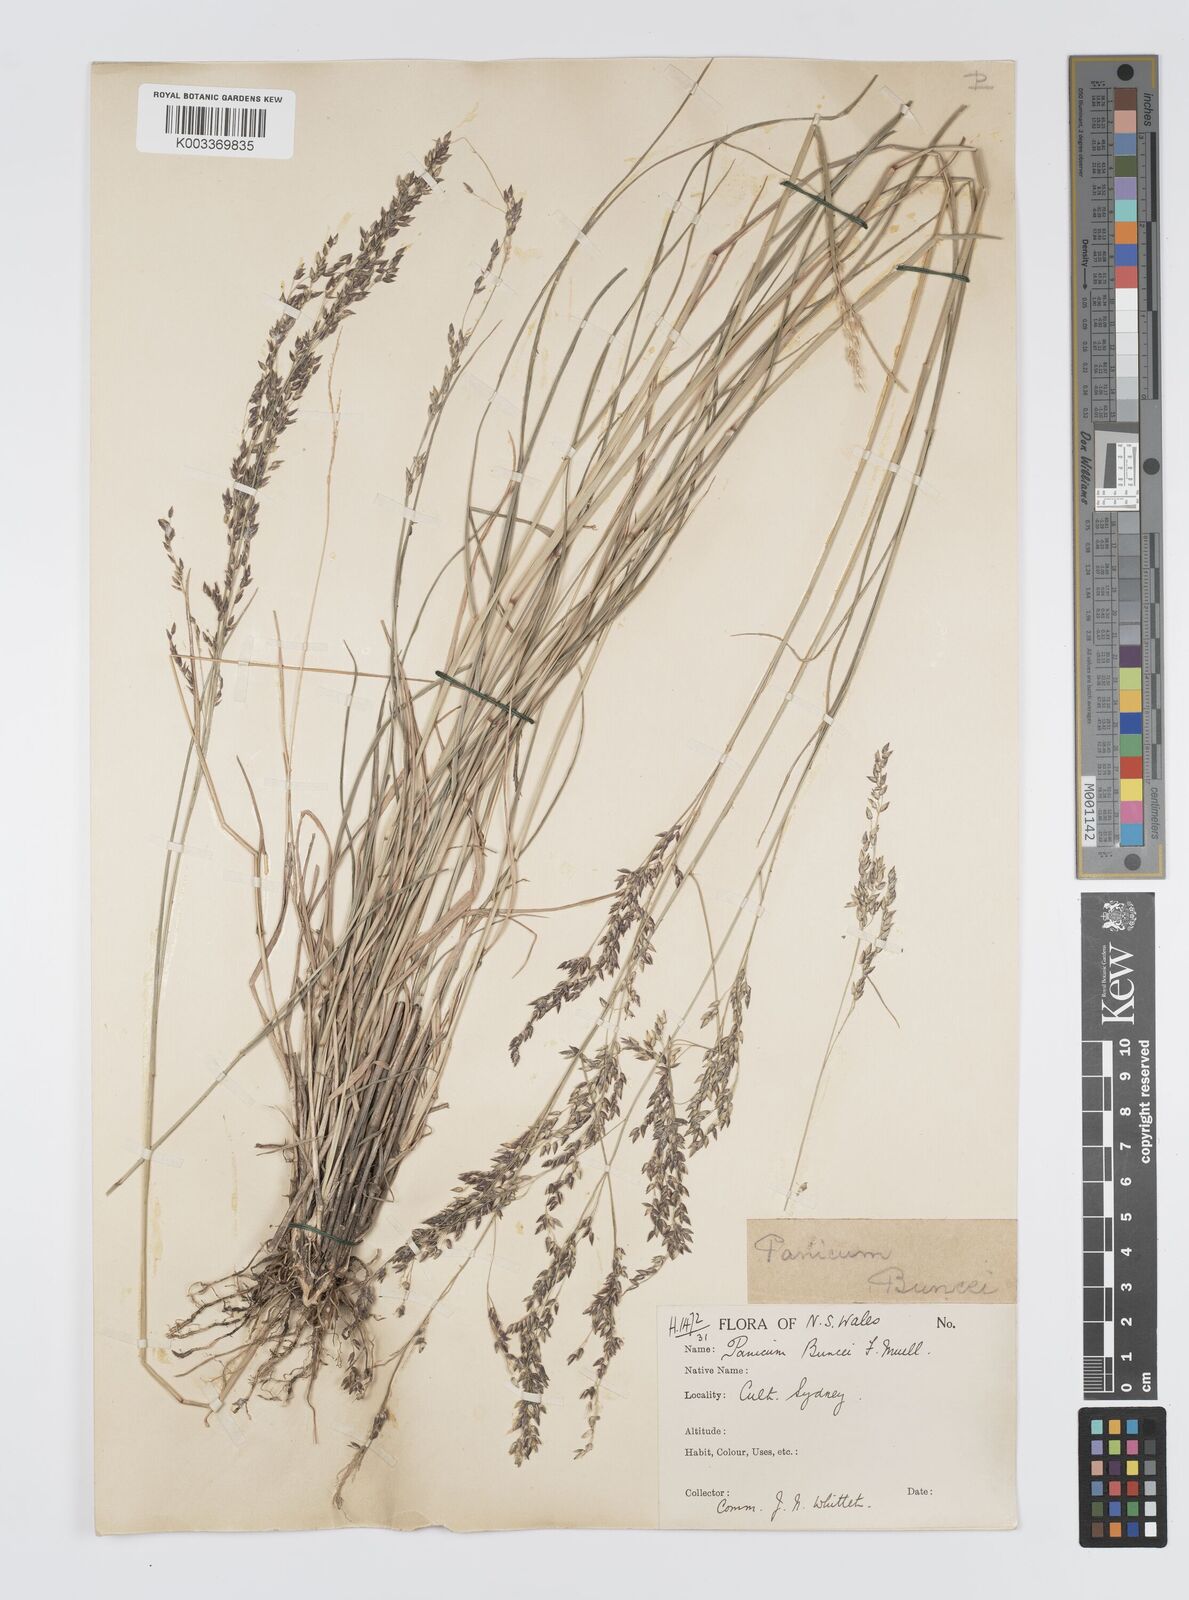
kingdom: Plantae
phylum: Tracheophyta
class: Liliopsida
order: Poales
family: Poaceae
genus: Panicum
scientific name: Panicum buncei
